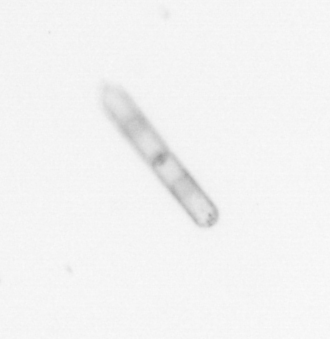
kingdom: Chromista
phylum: Ochrophyta
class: Bacillariophyceae
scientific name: Bacillariophyceae
